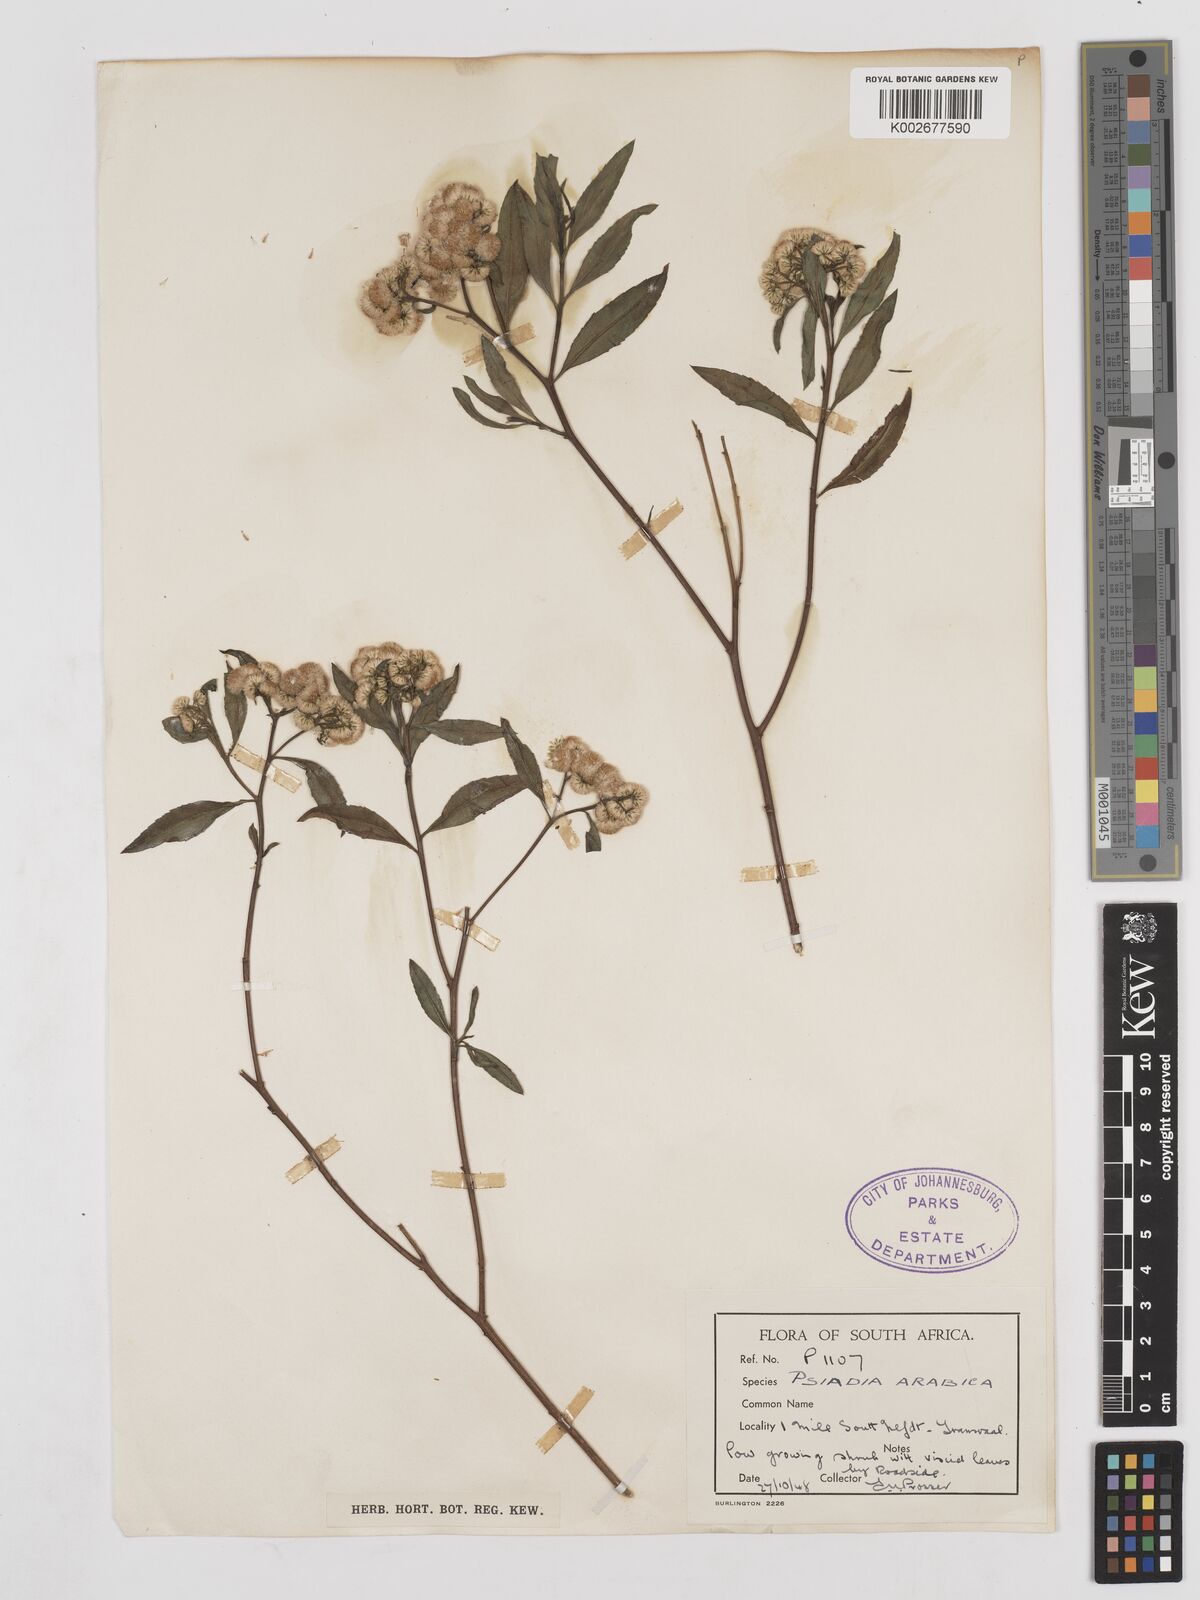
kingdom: Plantae
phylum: Tracheophyta
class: Magnoliopsida
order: Asterales
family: Asteraceae
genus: Psiadia
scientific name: Psiadia punctulata
